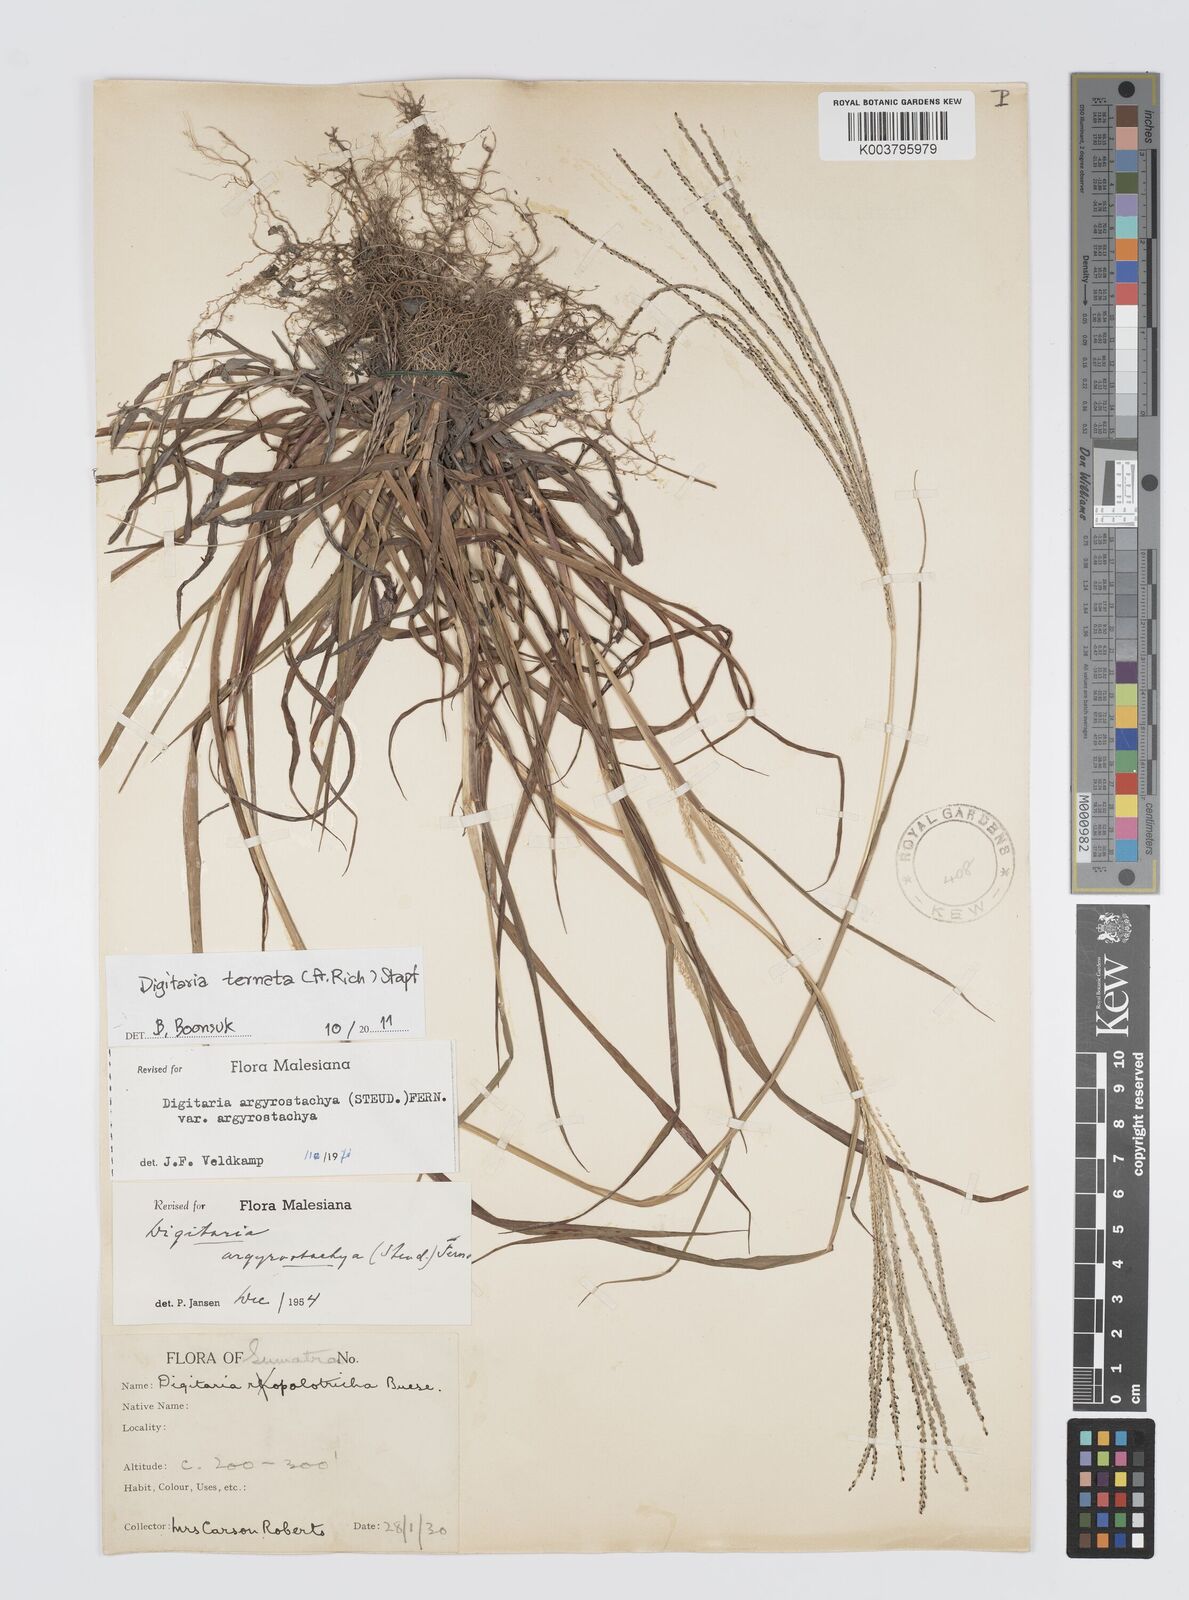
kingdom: Plantae
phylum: Tracheophyta
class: Liliopsida
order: Poales
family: Poaceae
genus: Digitaria
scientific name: Digitaria ternata
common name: Blackseed crabgrass
